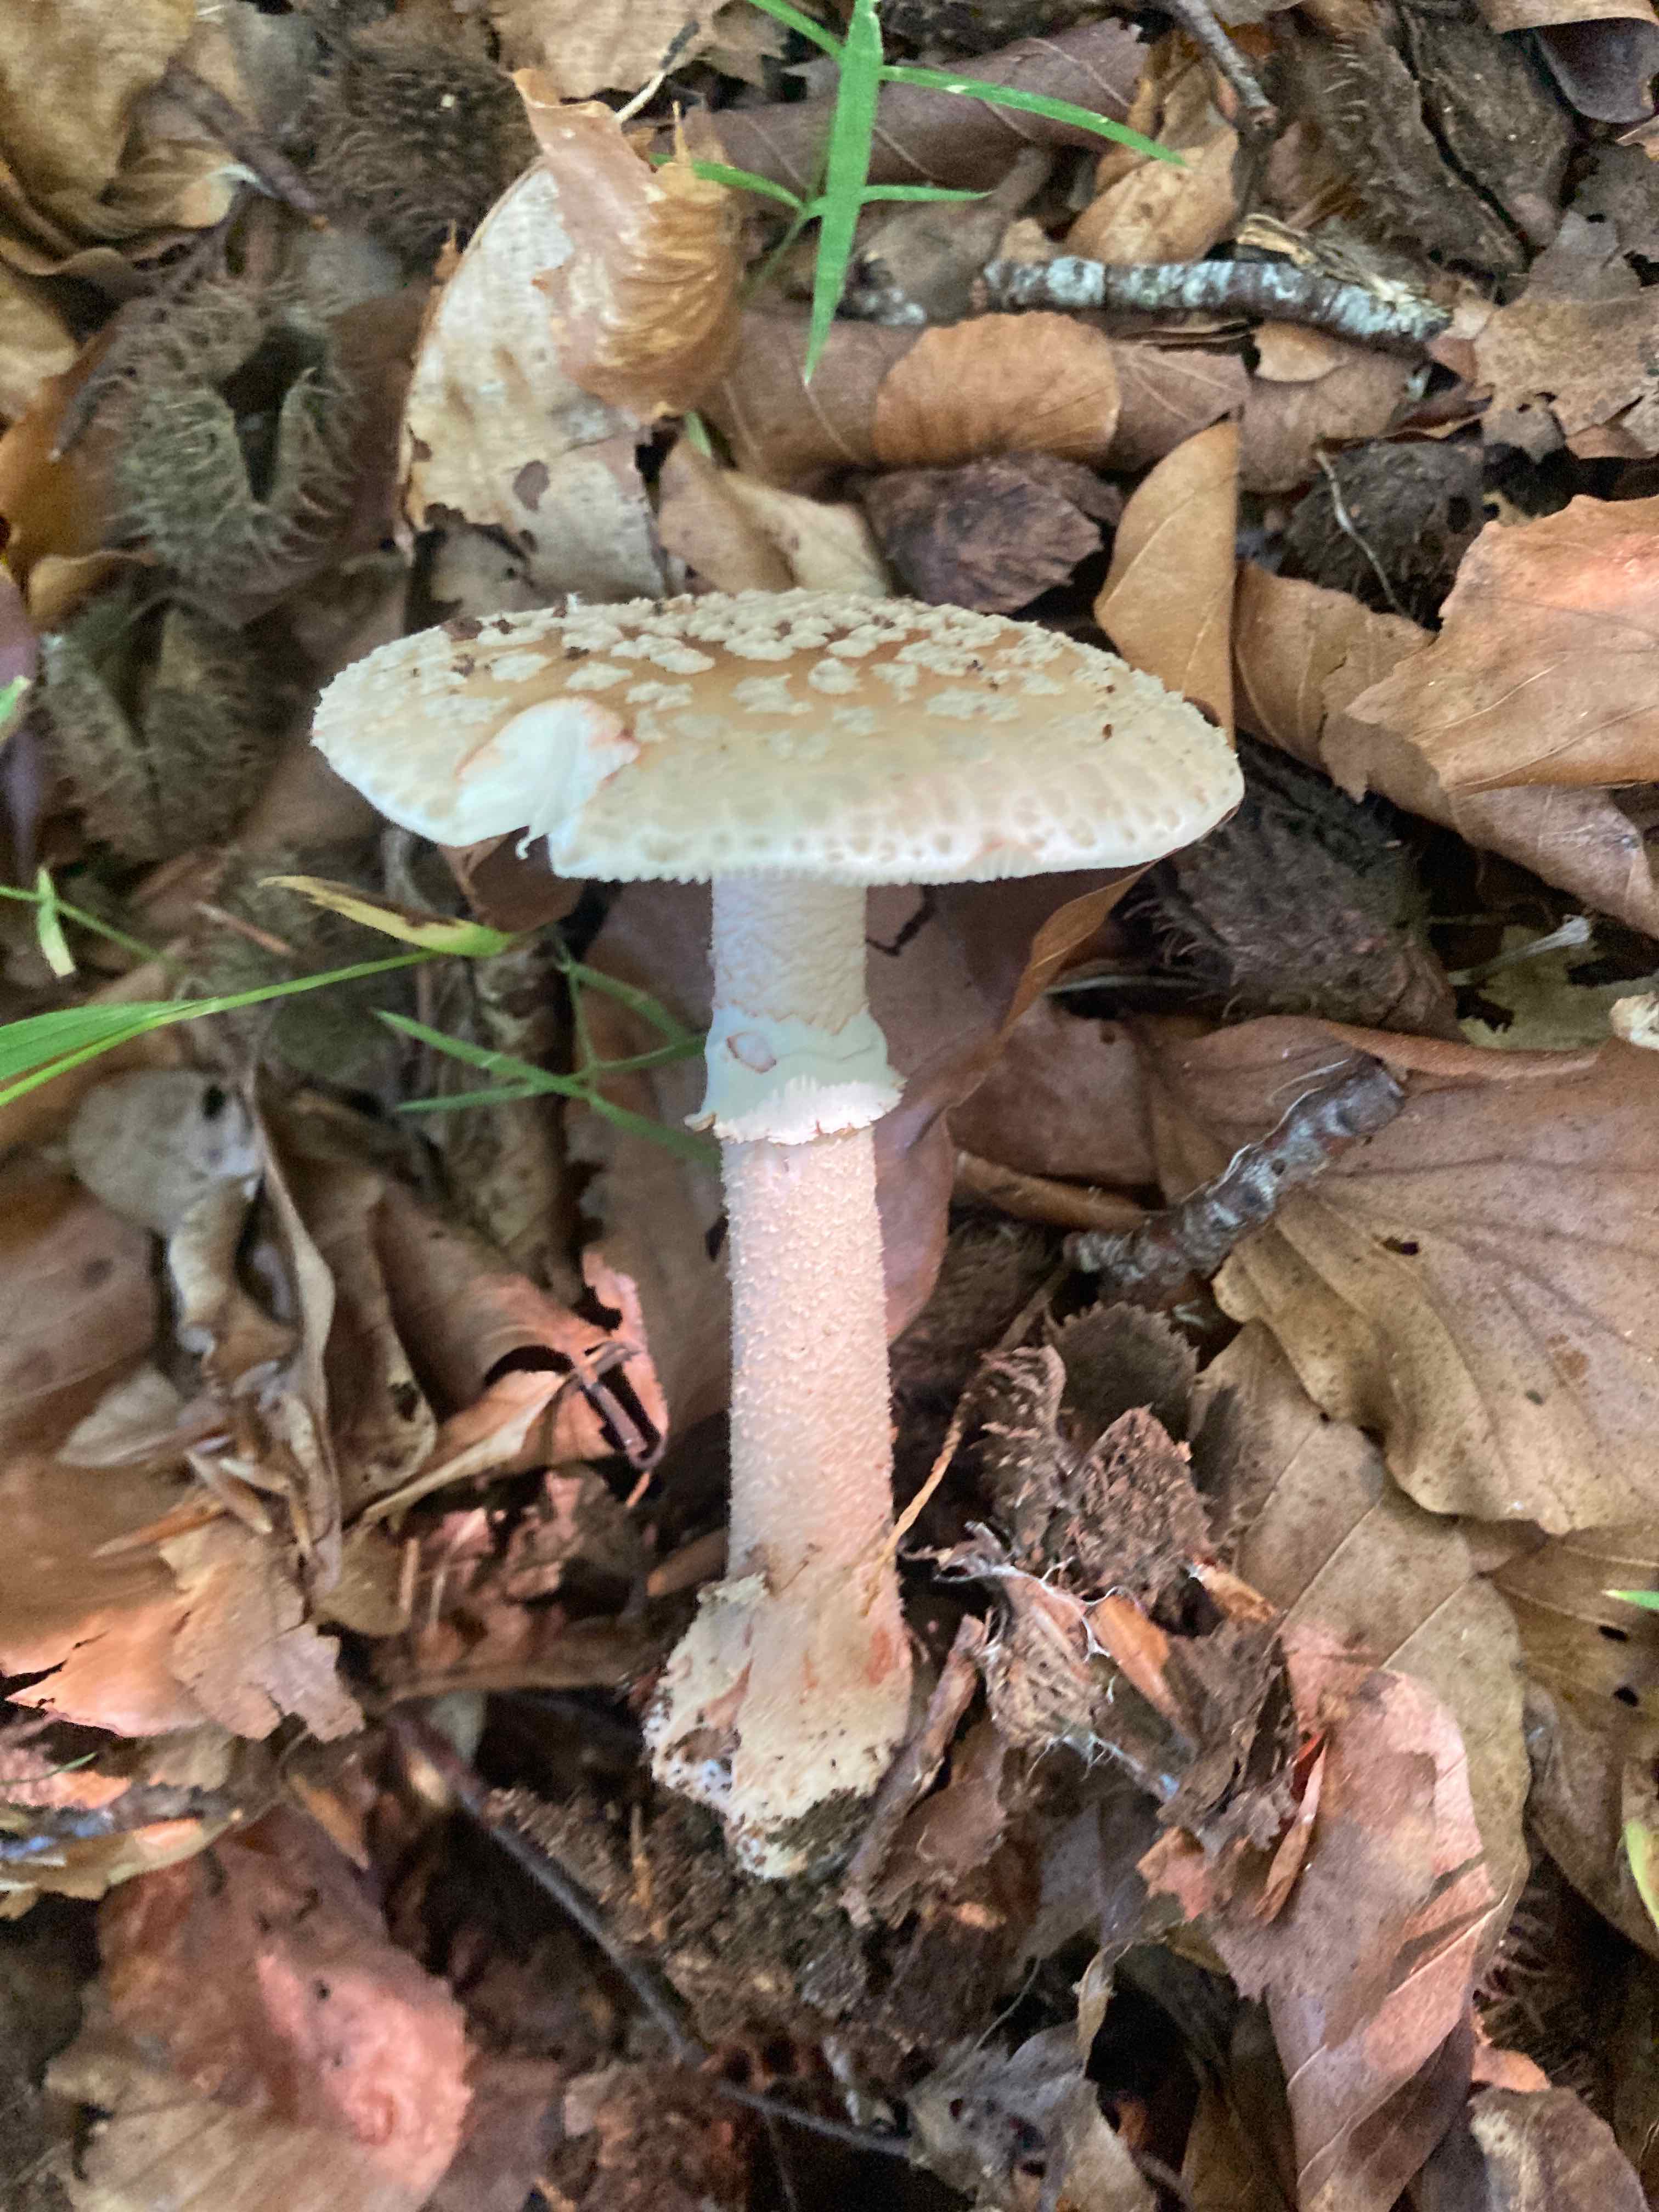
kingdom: Fungi
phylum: Basidiomycota
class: Agaricomycetes
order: Agaricales
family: Amanitaceae
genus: Amanita
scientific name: Amanita rubescens
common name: rødmende fluesvamp
